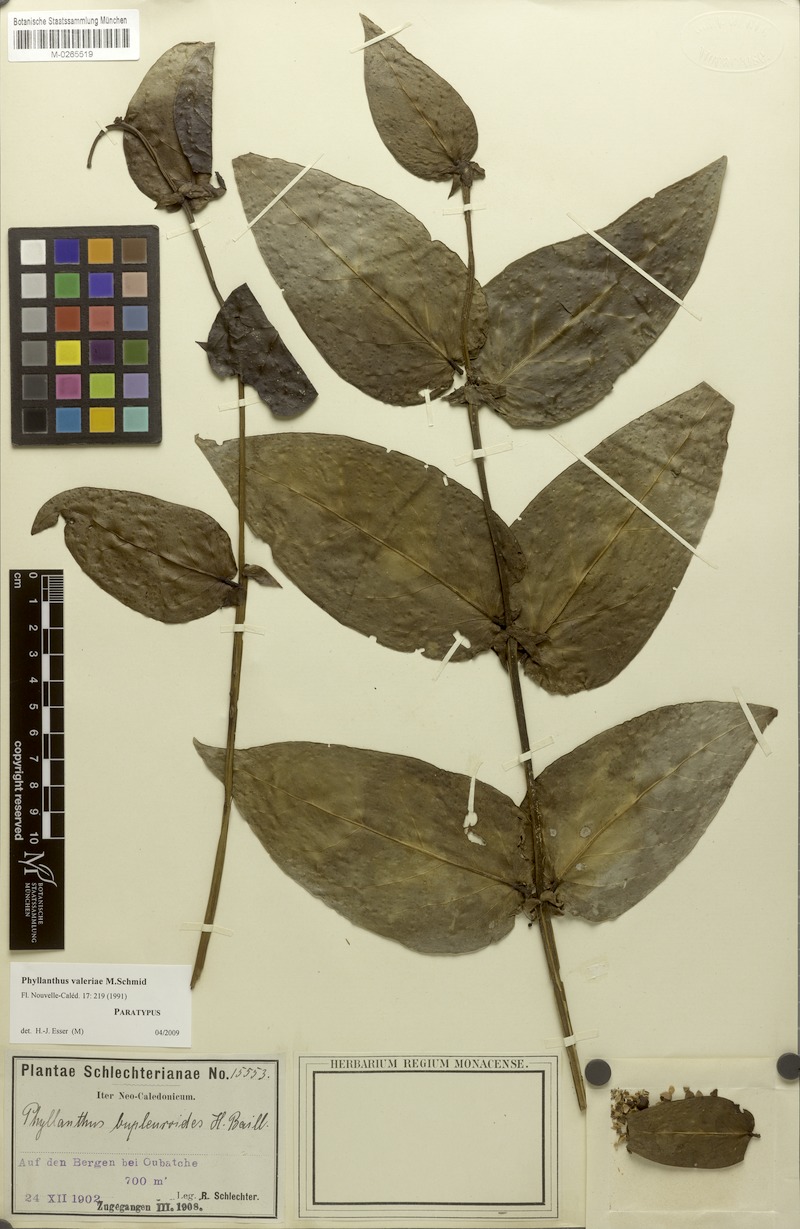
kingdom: Plantae
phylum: Tracheophyta
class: Magnoliopsida
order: Malpighiales
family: Phyllanthaceae
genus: Phyllanthus
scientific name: Phyllanthus valeriae
